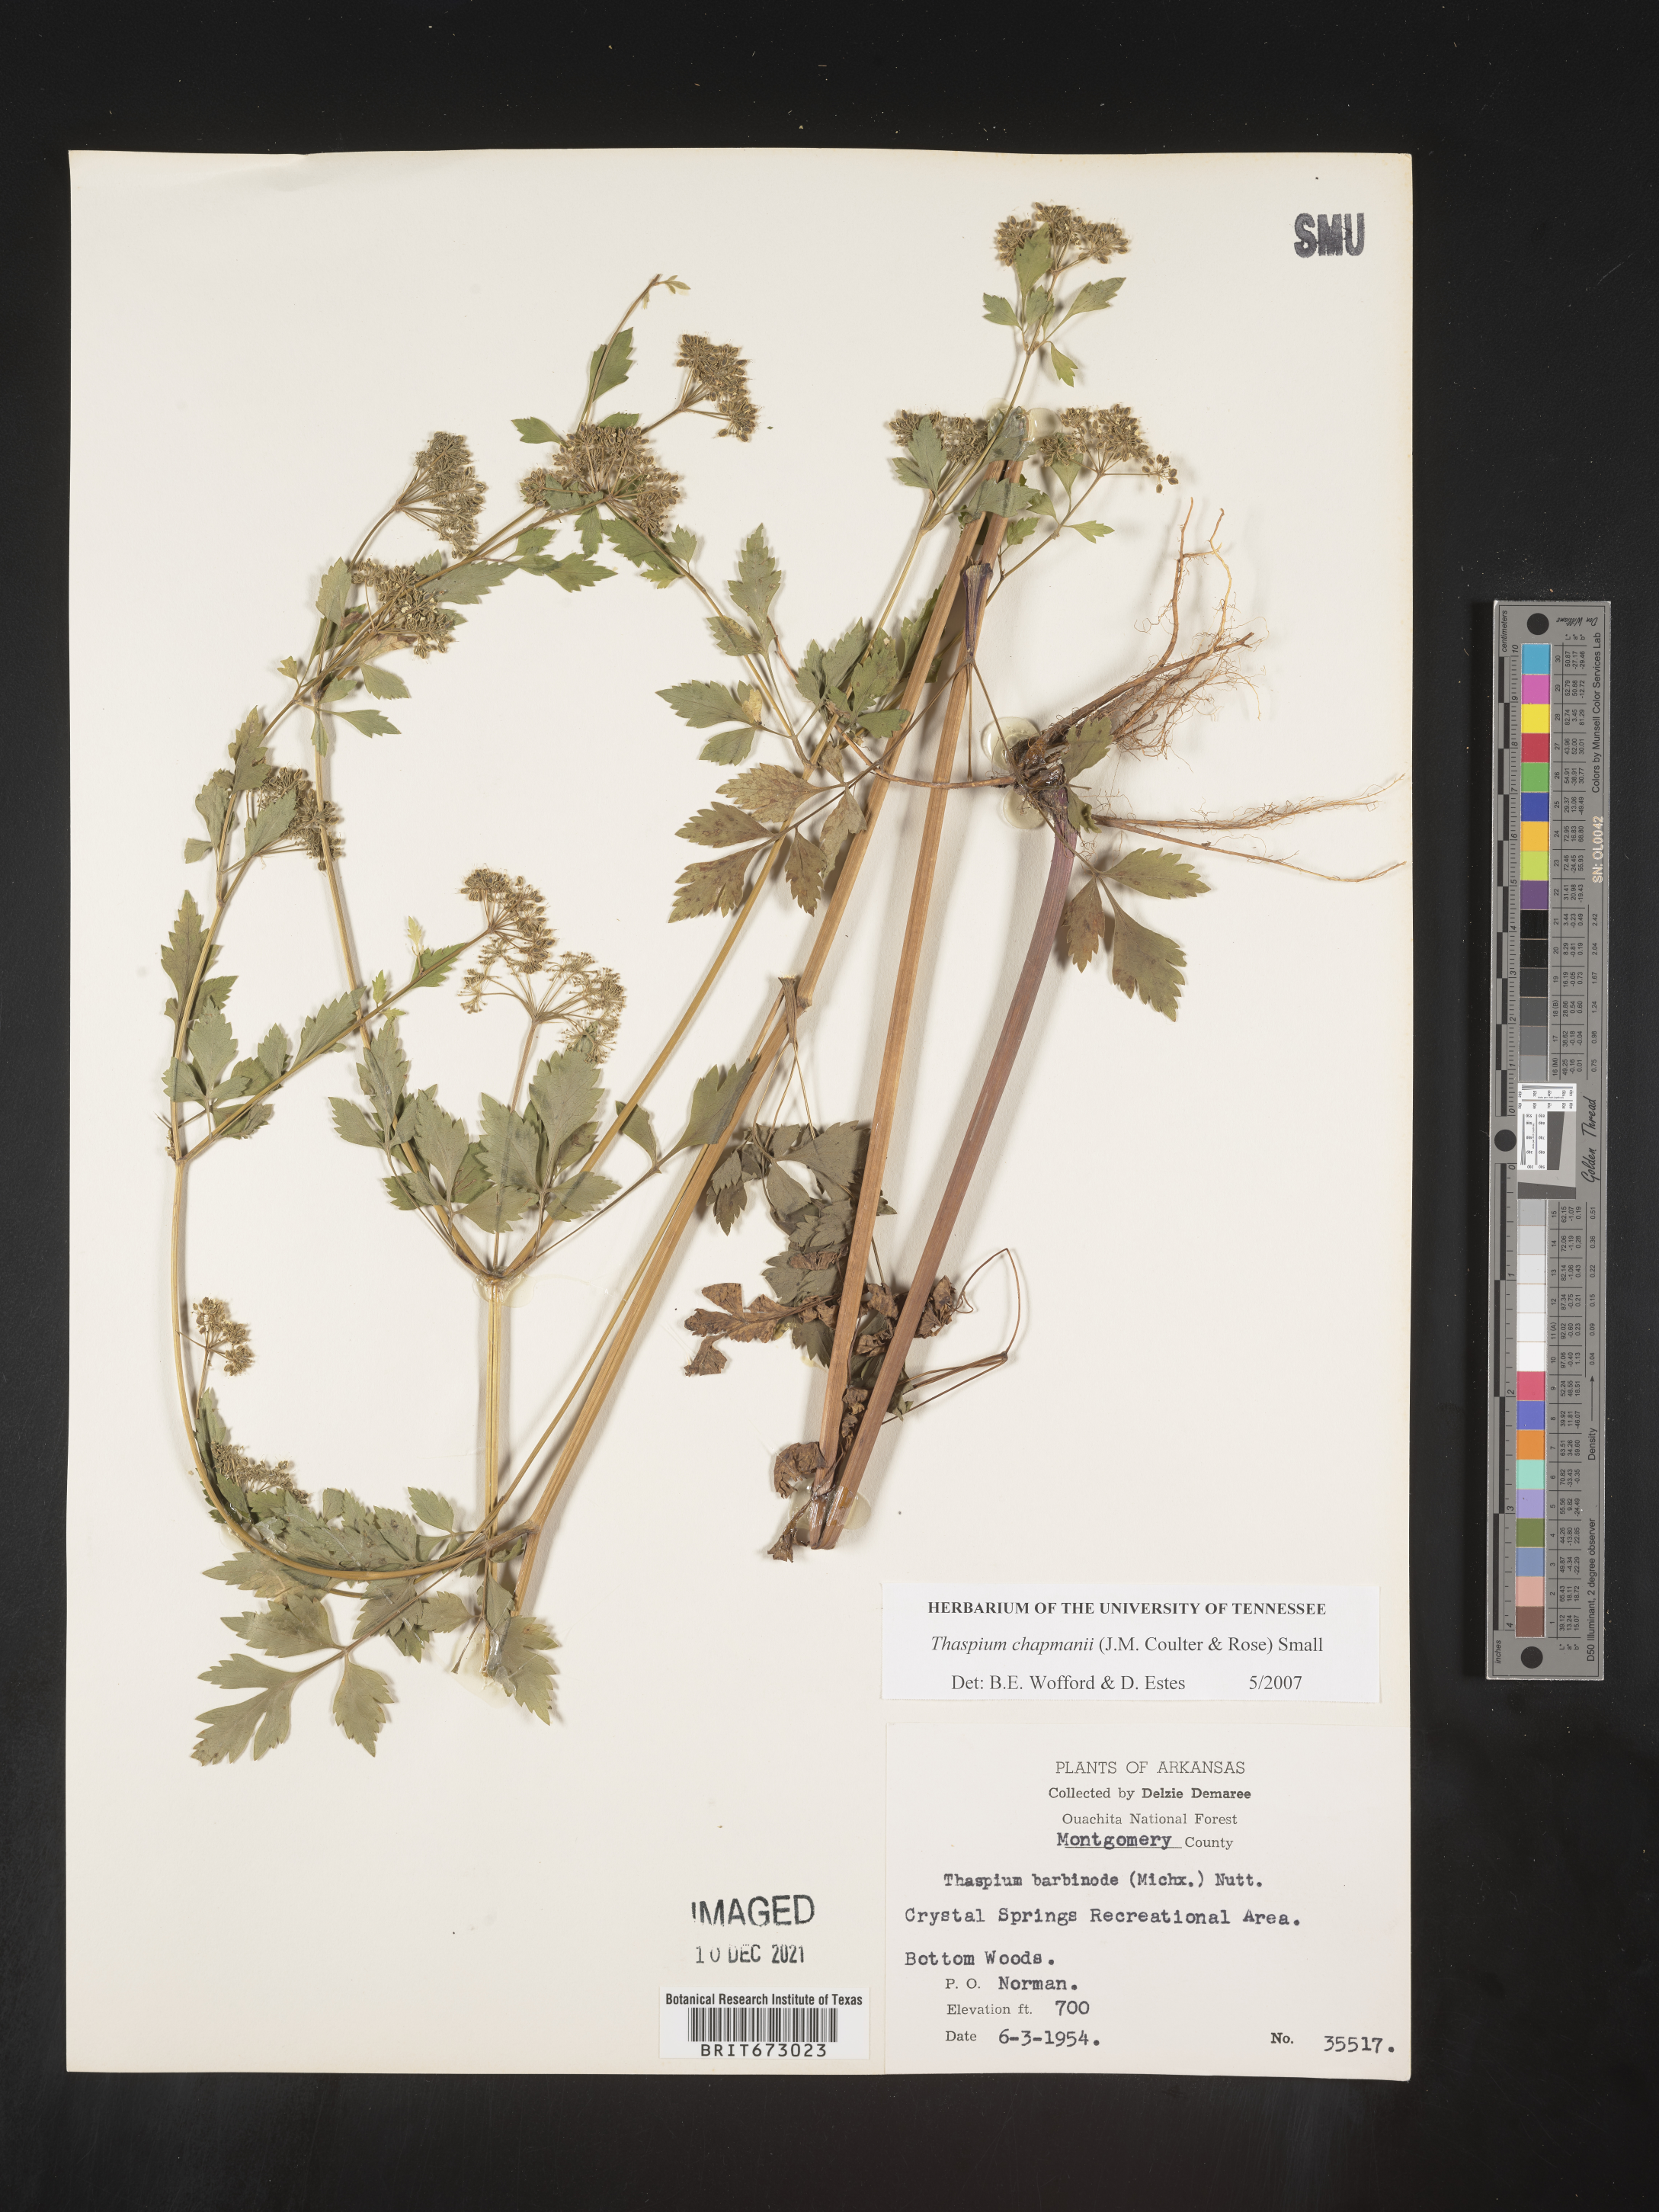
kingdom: Plantae
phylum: Tracheophyta
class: Magnoliopsida
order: Apiales
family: Apiaceae
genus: Thaspium
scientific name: Thaspium barbinode
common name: Bearded meadow-parsnip
